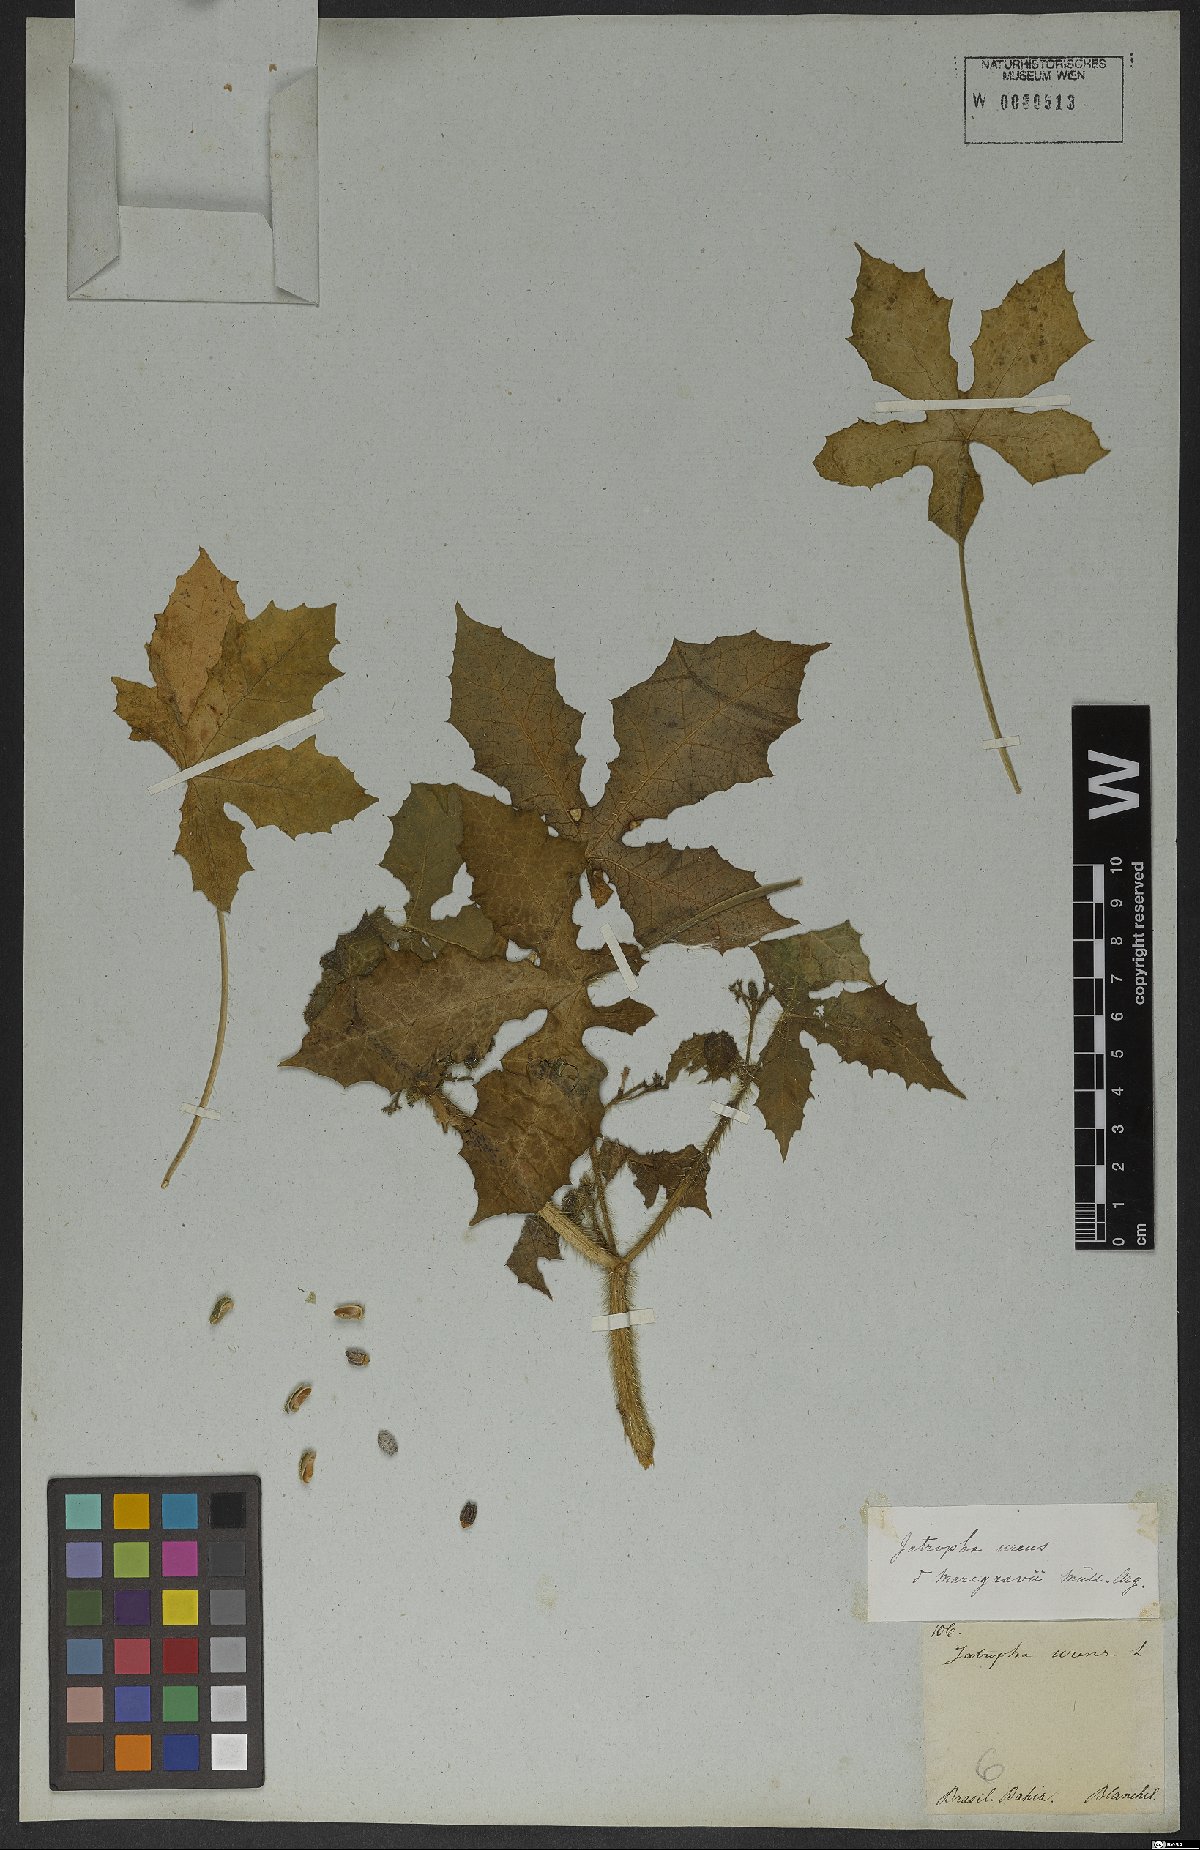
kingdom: Plantae
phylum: Tracheophyta
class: Magnoliopsida
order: Malpighiales
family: Euphorbiaceae
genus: Cnidoscolus
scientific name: Cnidoscolus urens
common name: Bull-nettle
